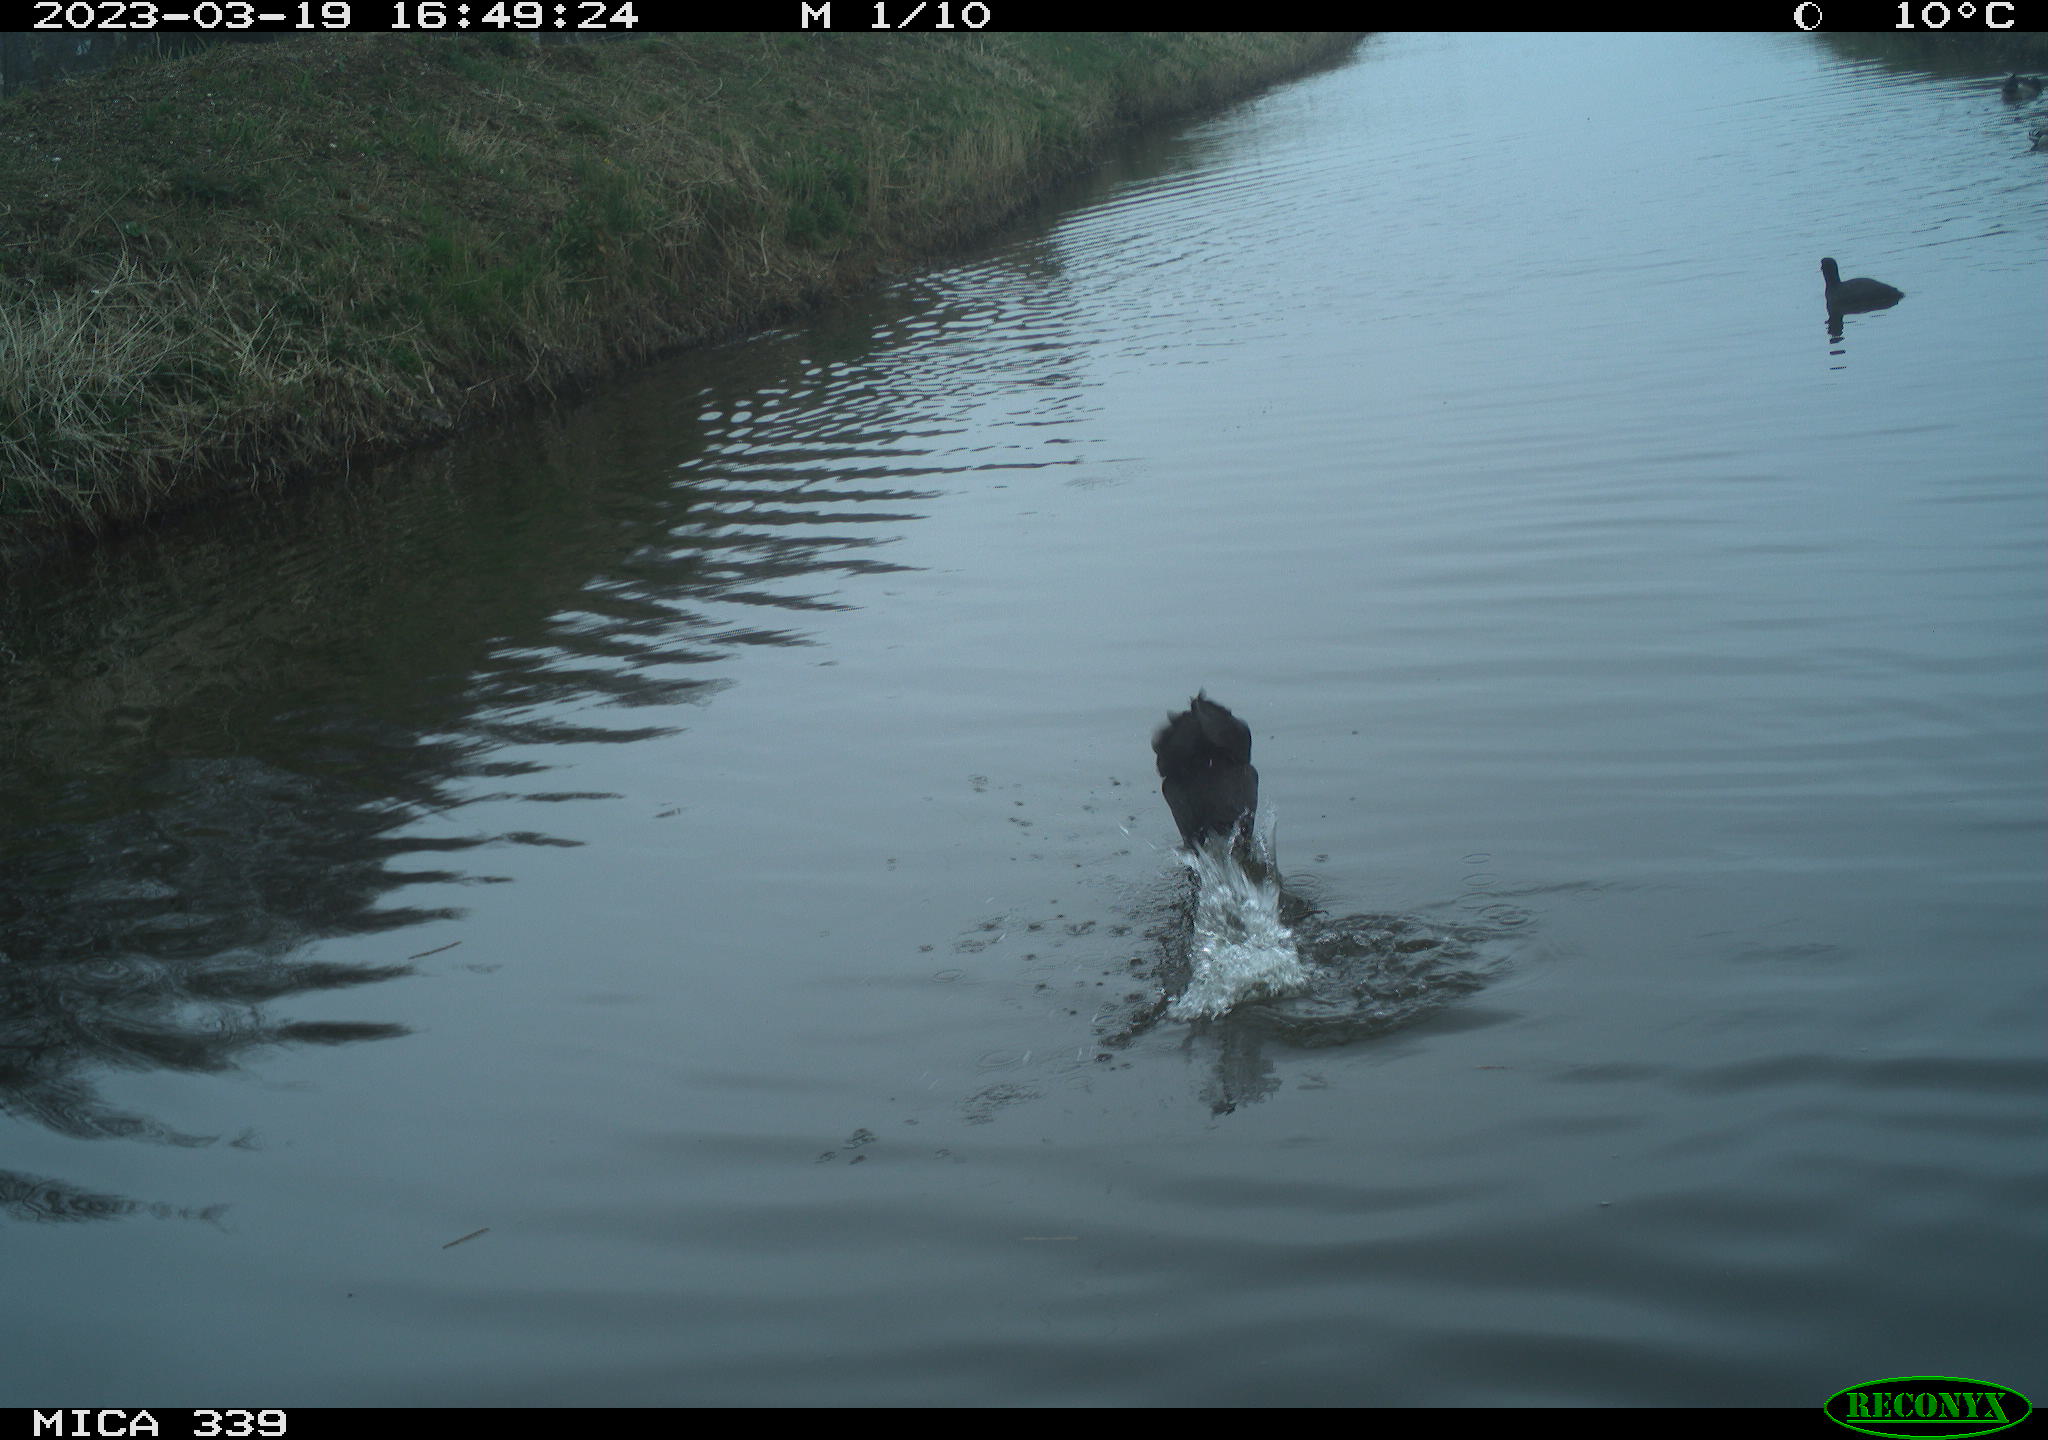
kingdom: Animalia
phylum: Chordata
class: Aves
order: Gruiformes
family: Rallidae
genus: Fulica
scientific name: Fulica atra
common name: Eurasian coot
